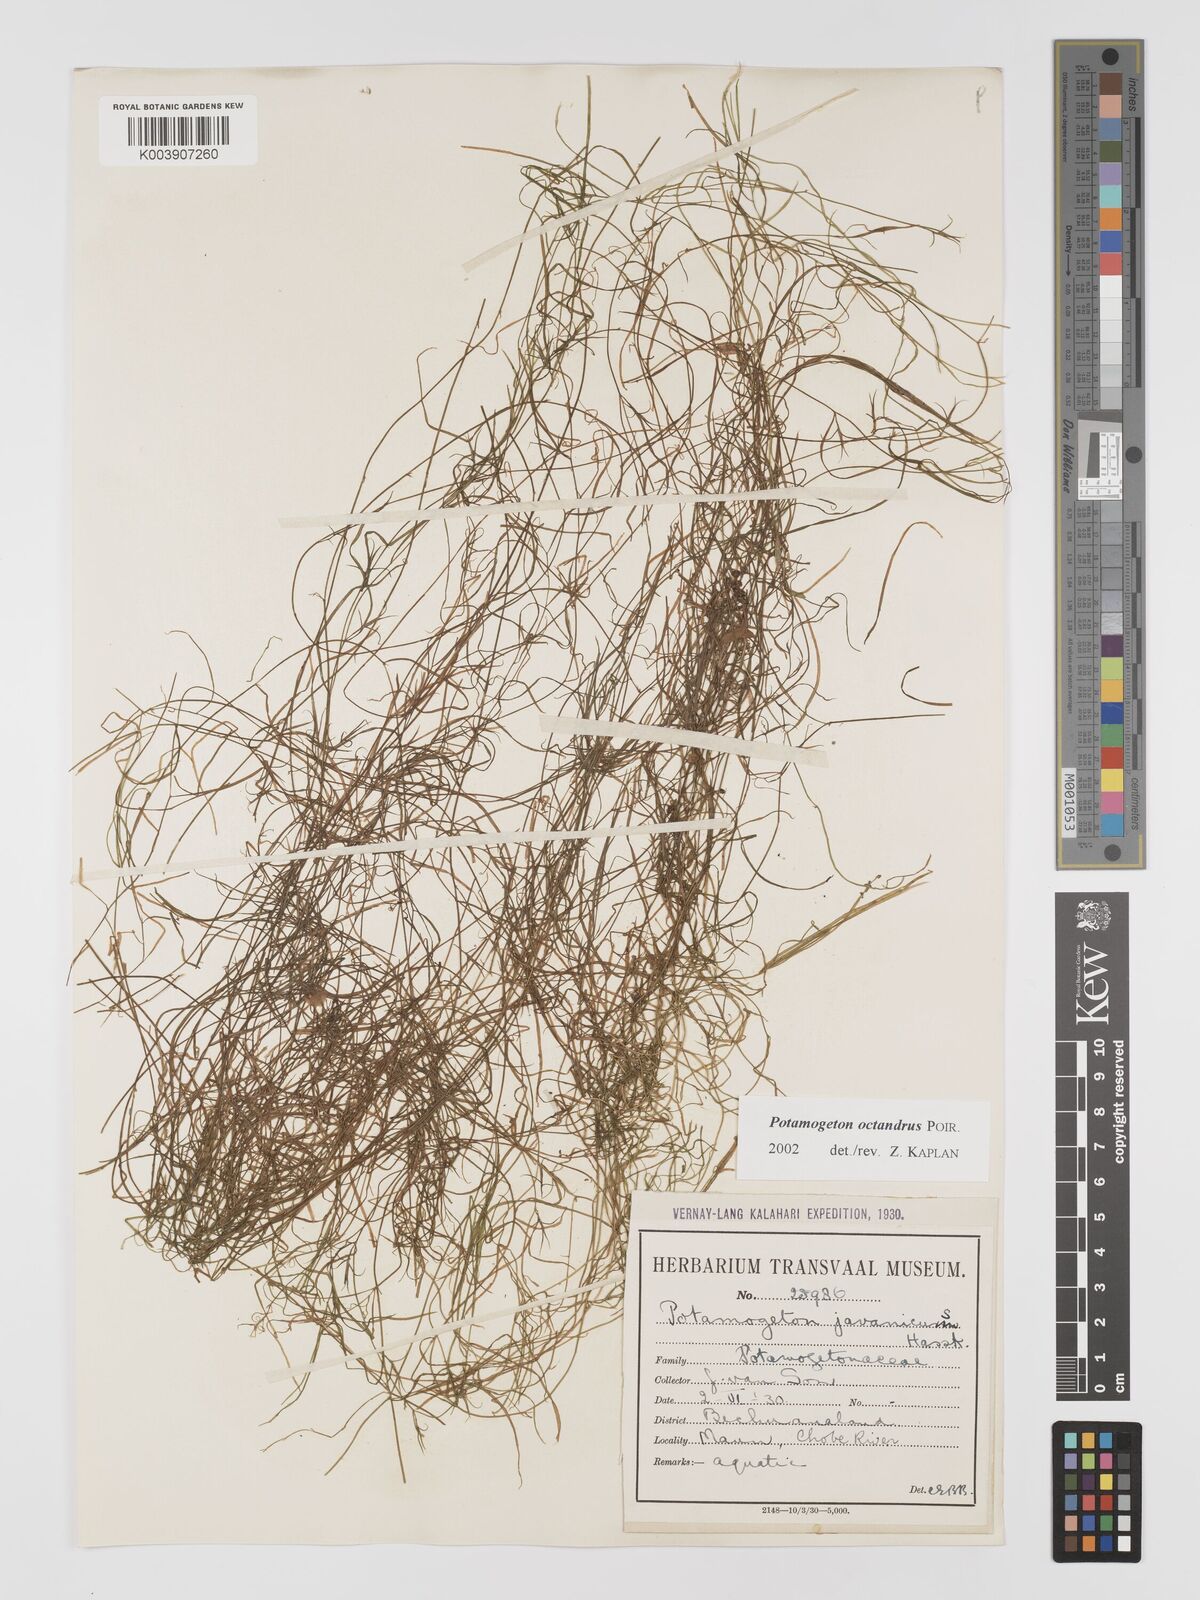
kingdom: Plantae
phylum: Tracheophyta
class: Liliopsida
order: Alismatales
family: Potamogetonaceae
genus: Potamogeton
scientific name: Potamogeton tenuicaulis
